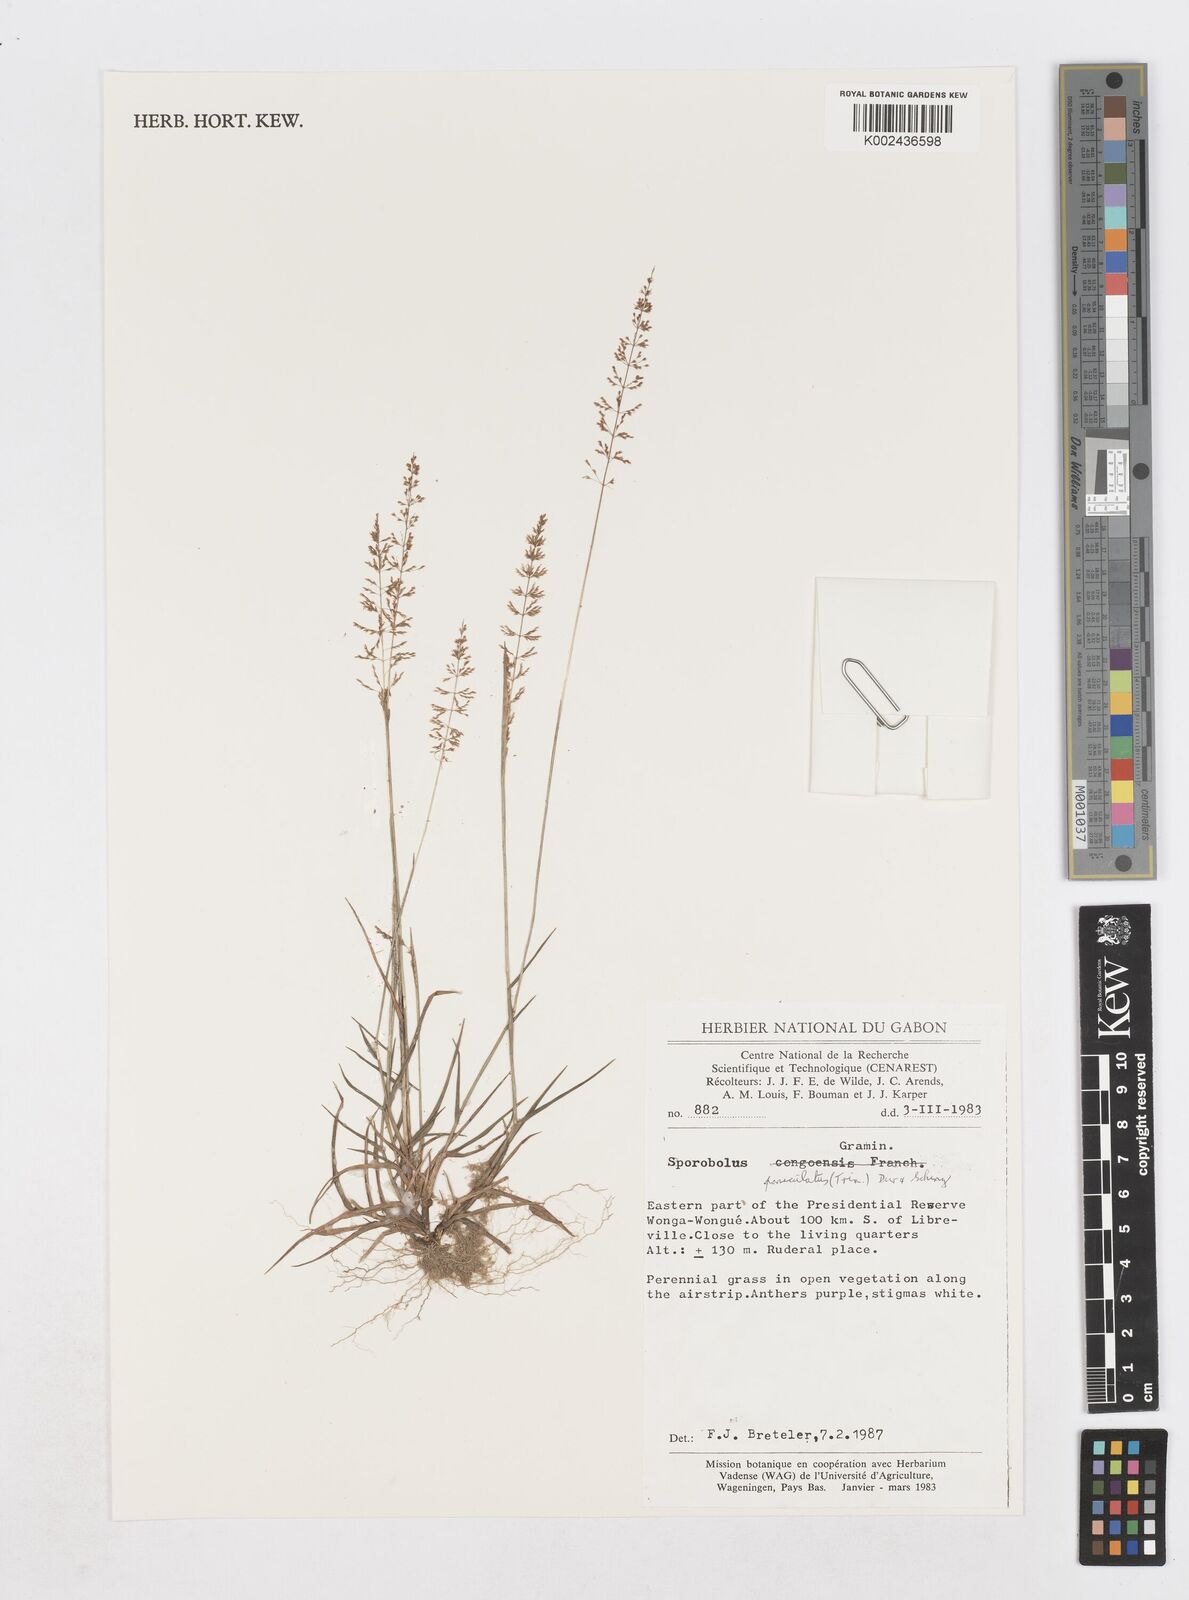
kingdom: Plantae
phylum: Tracheophyta
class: Liliopsida
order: Poales
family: Poaceae
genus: Sporobolus
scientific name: Sporobolus paniculatus
